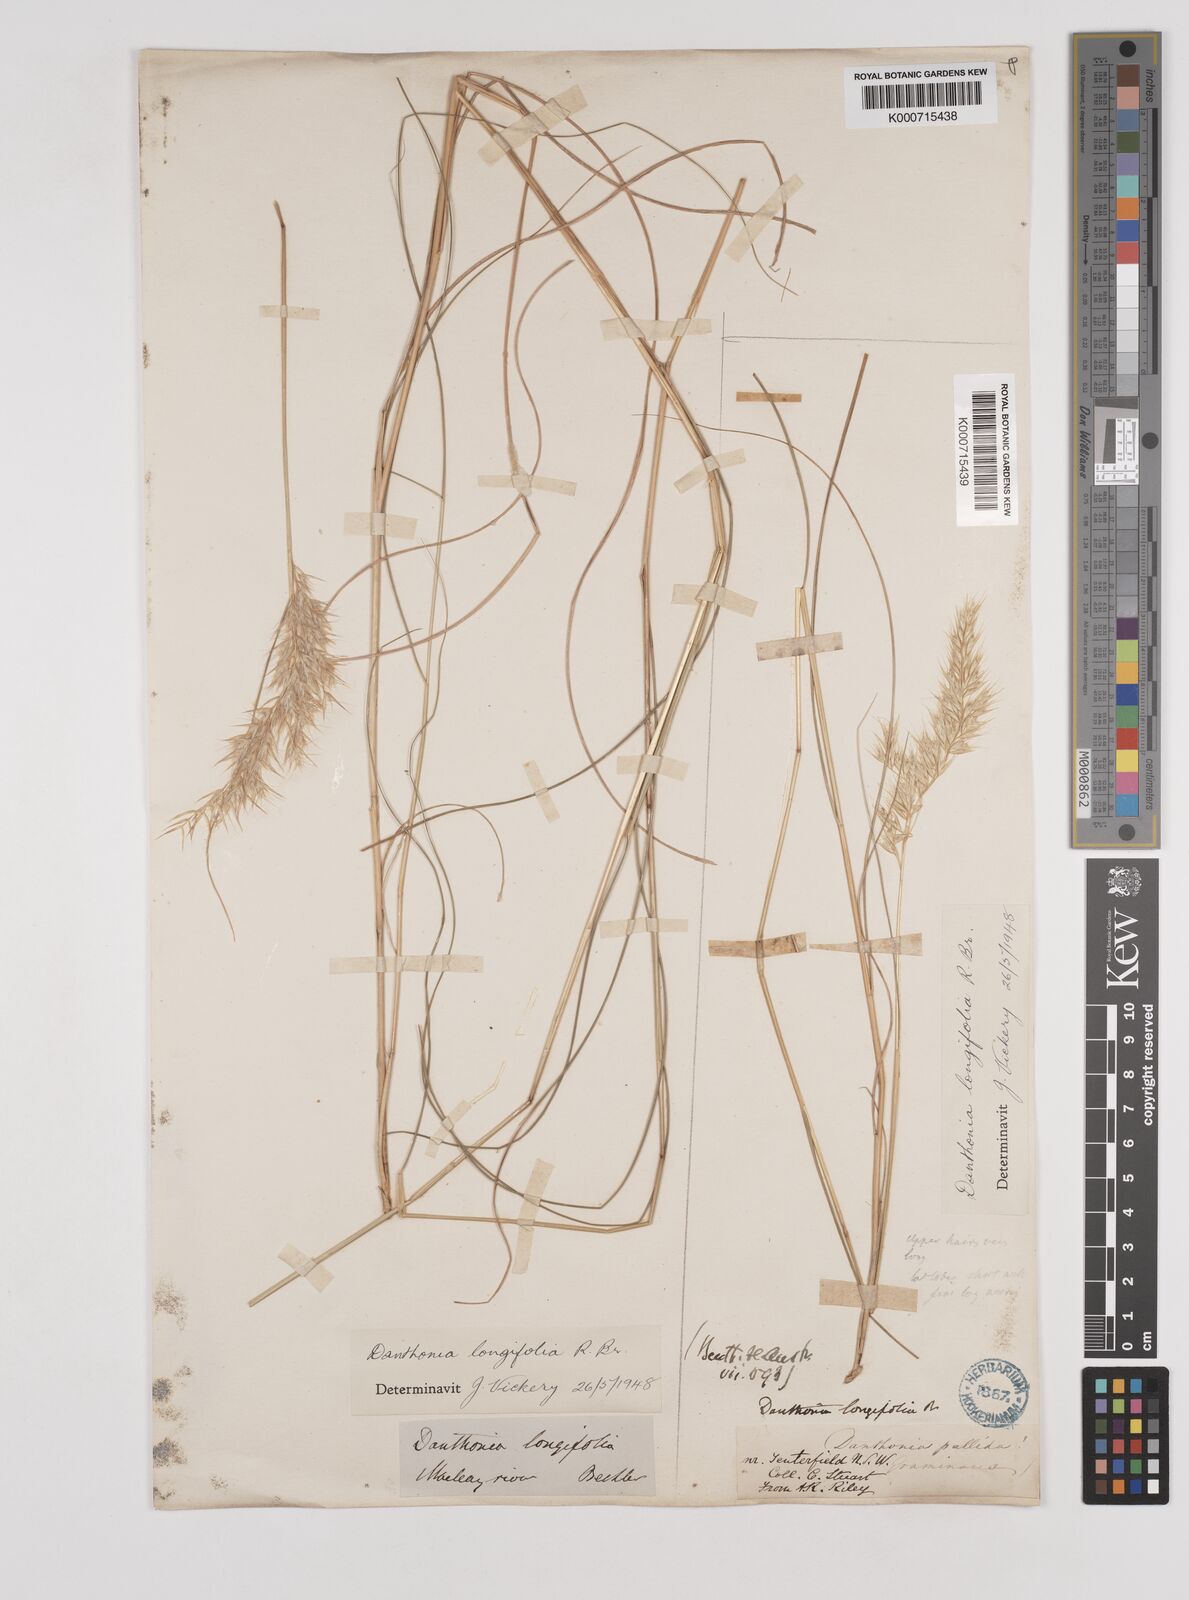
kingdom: Plantae
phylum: Tracheophyta
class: Liliopsida
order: Poales
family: Poaceae
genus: Rytidosperma
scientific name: Rytidosperma longifolium
